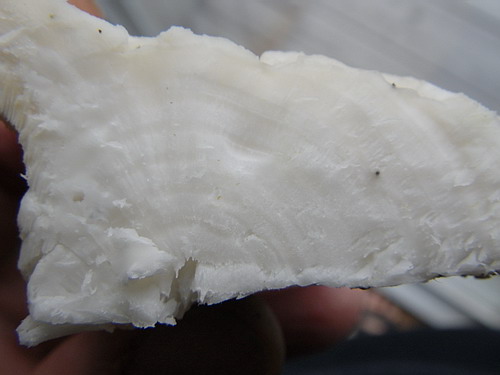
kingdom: Fungi
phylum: Basidiomycota
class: Agaricomycetes
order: Polyporales
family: Incrustoporiaceae
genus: Tyromyces
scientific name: Tyromyces chioneus
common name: stor blødporesvamp
